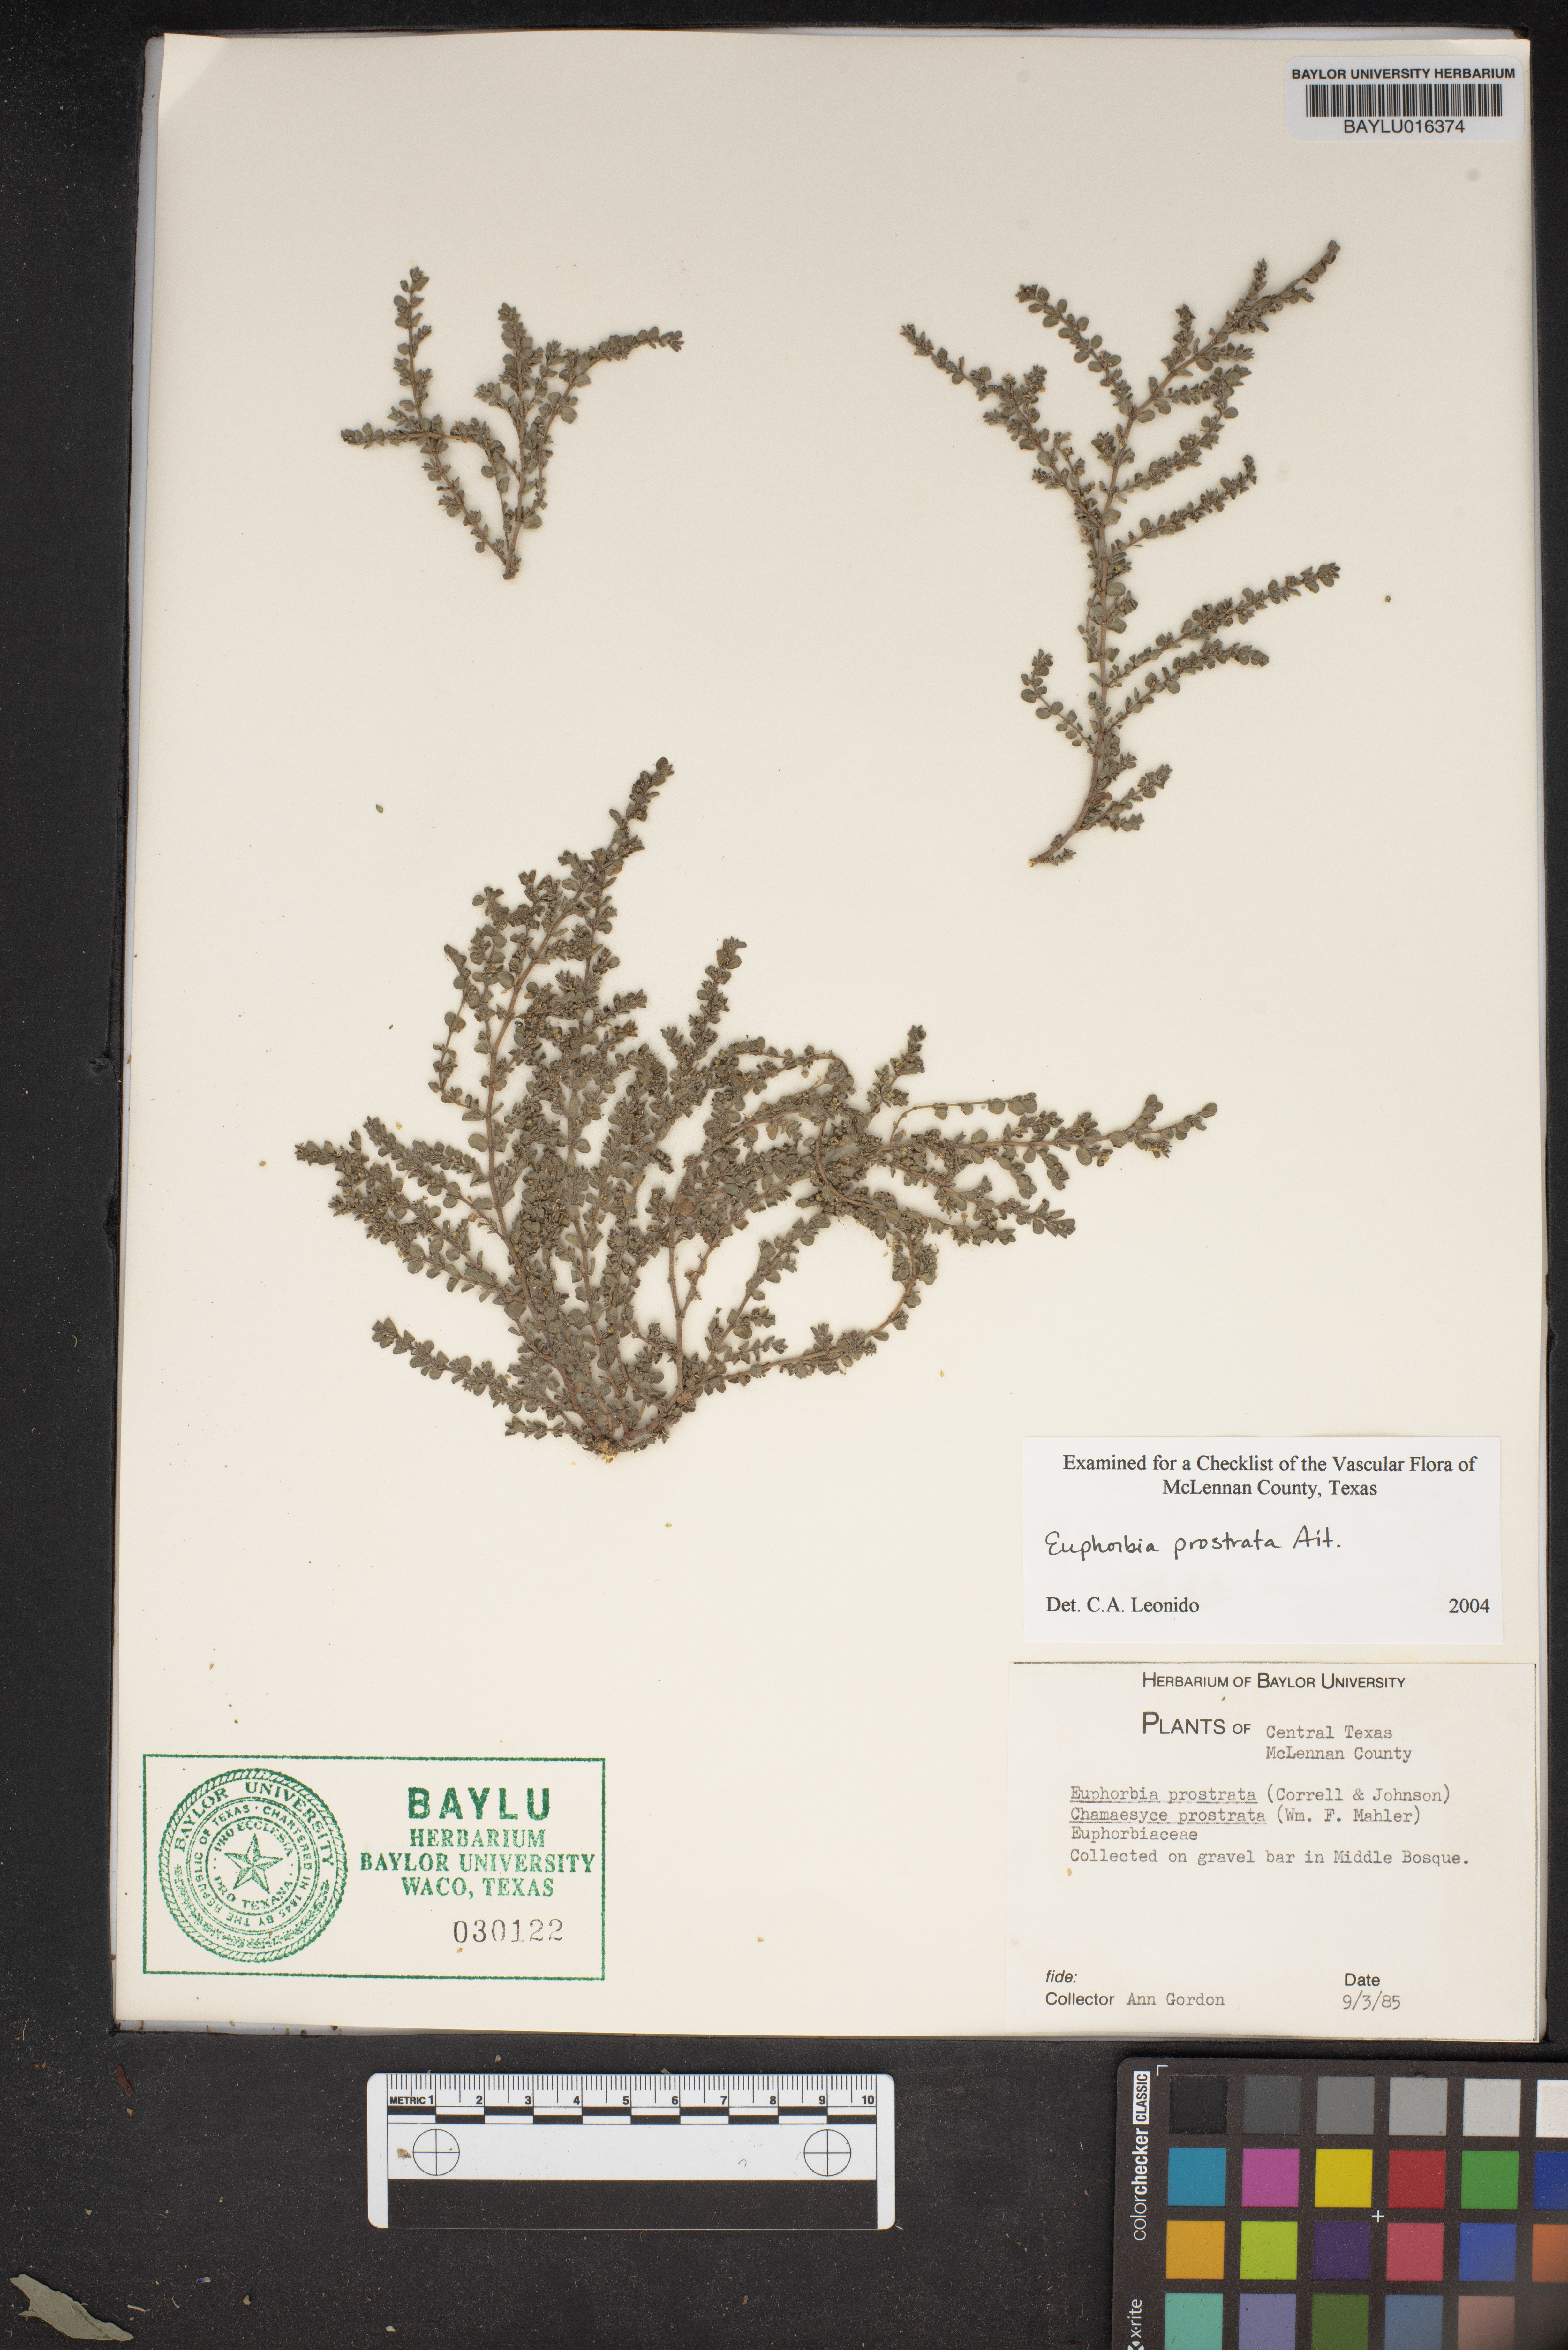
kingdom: Plantae
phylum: Tracheophyta
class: Magnoliopsida
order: Malpighiales
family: Euphorbiaceae
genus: Euphorbia
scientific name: Euphorbia prostrata
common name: Prostrate sandmat
